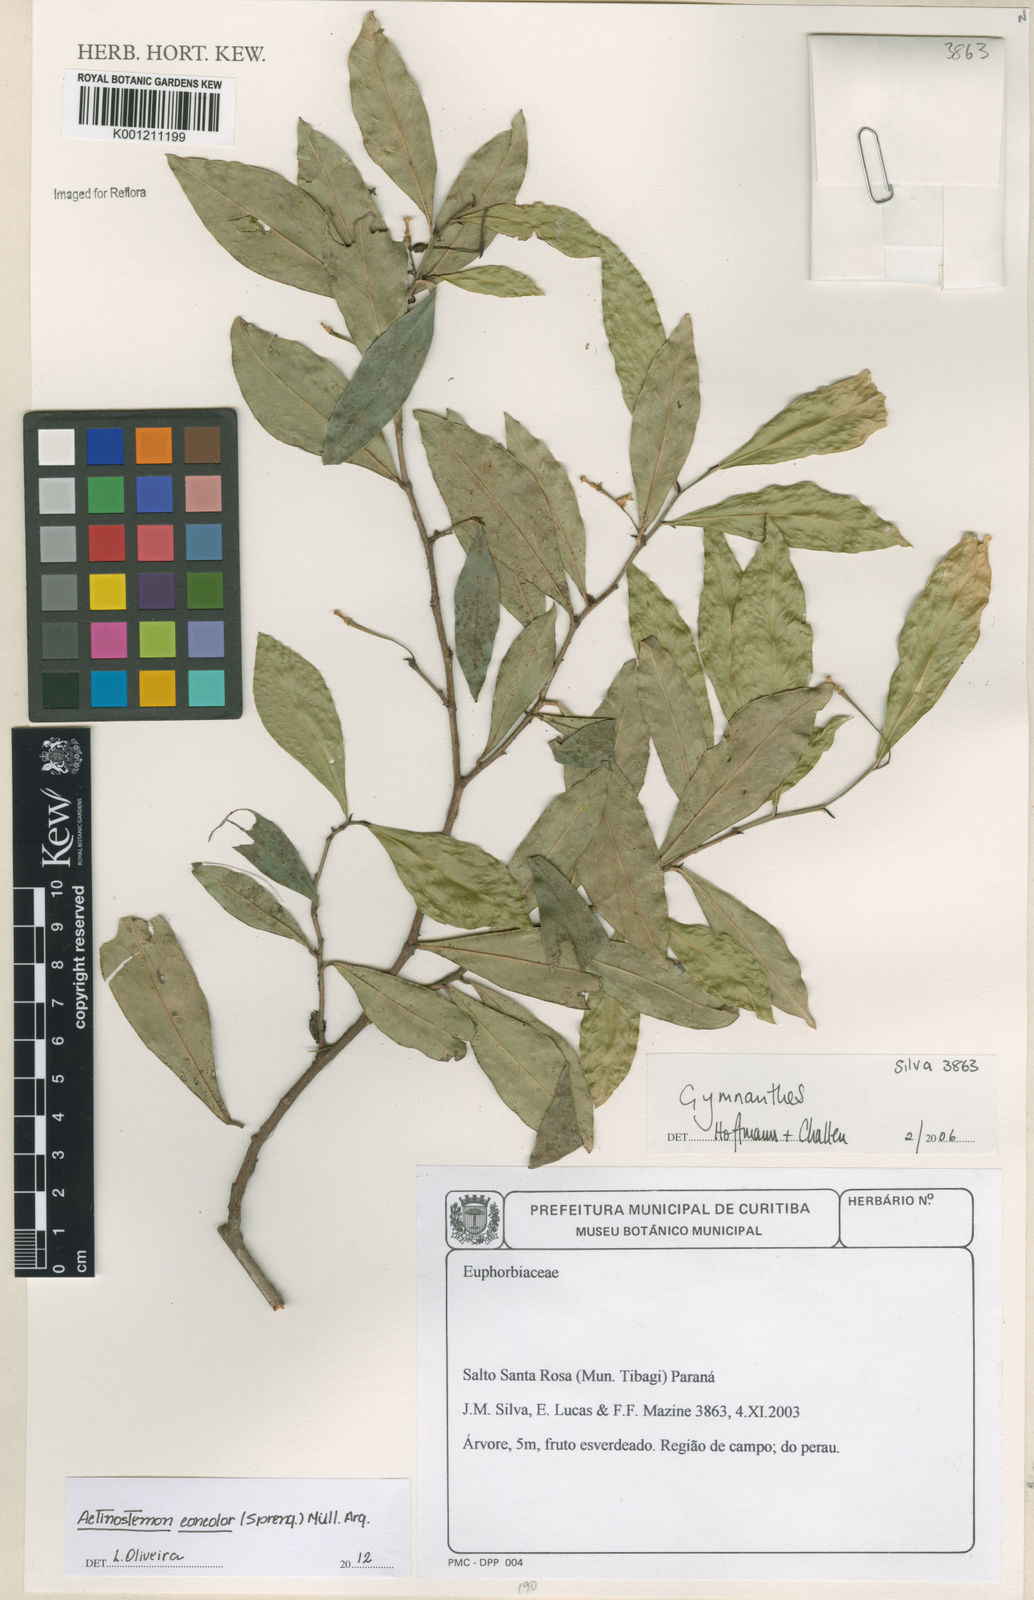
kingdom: Plantae
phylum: Tracheophyta
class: Magnoliopsida
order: Malpighiales
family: Euphorbiaceae
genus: Actinostemon
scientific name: Actinostemon
